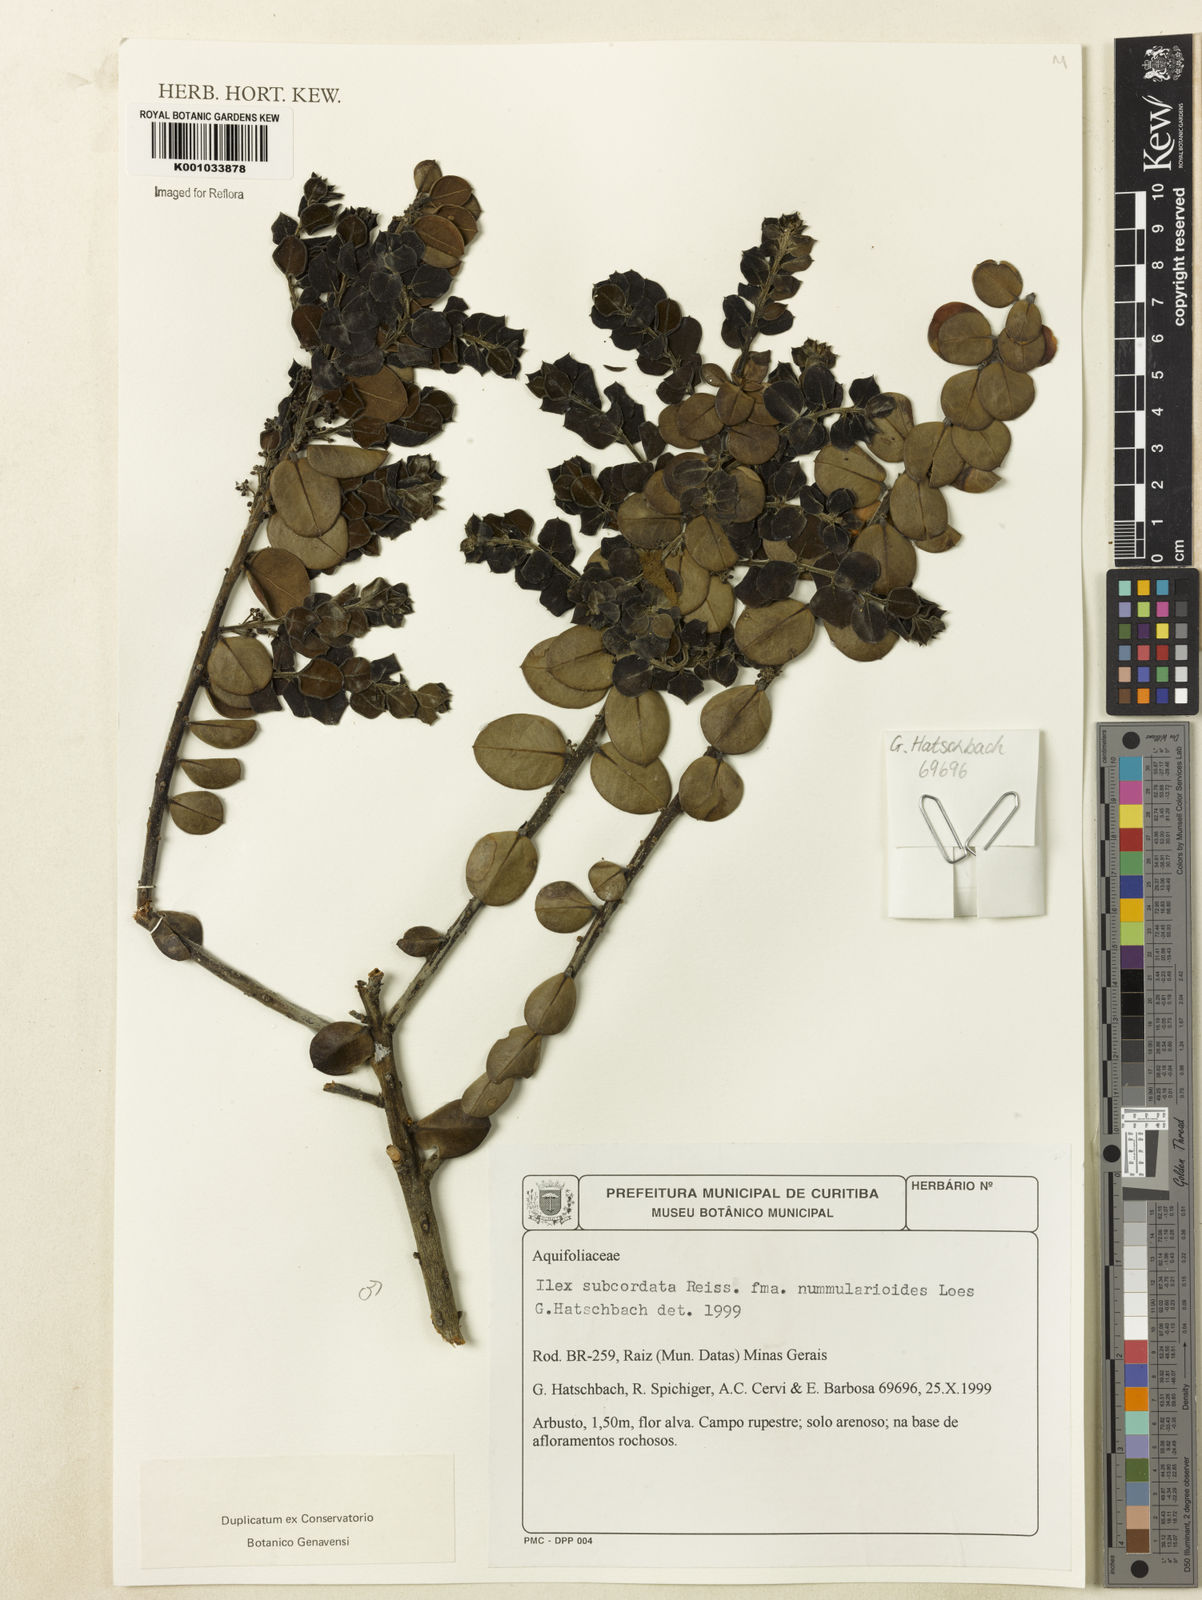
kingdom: Plantae
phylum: Tracheophyta
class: Magnoliopsida
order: Aquifoliales
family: Aquifoliaceae
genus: Ilex
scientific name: Ilex subcordata
